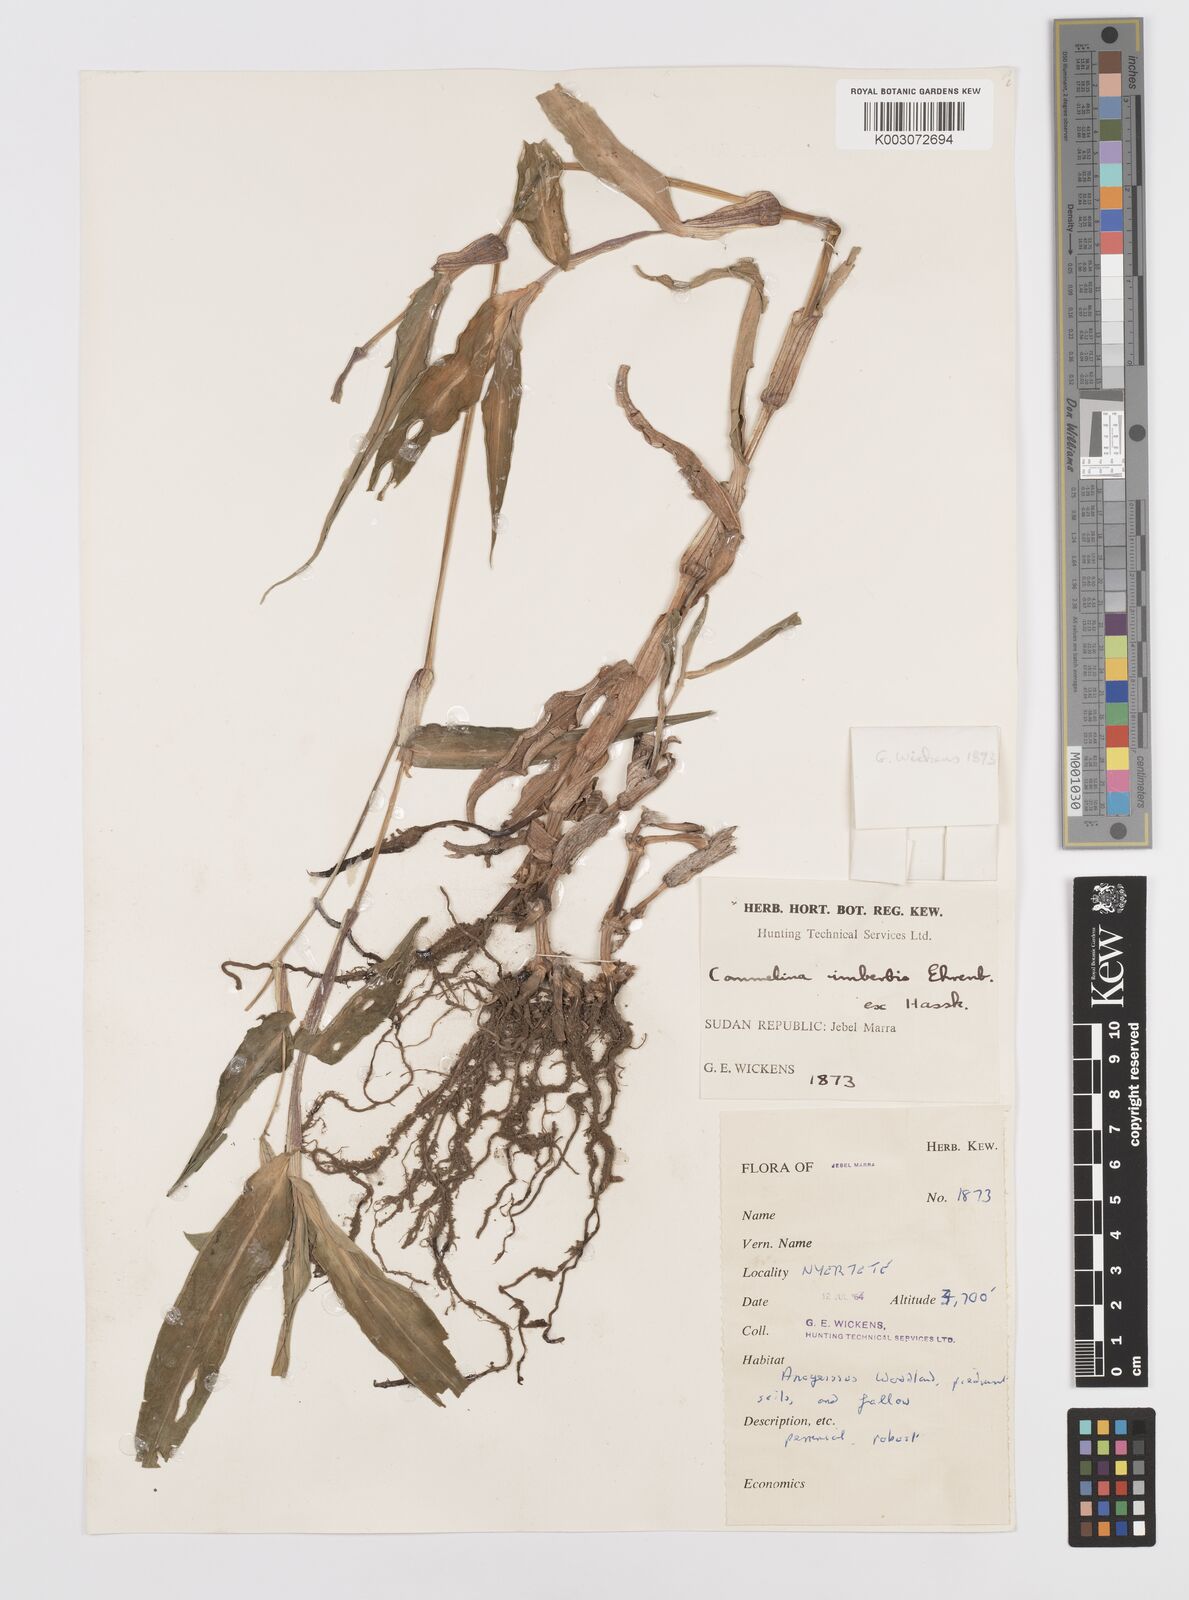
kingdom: Plantae
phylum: Tracheophyta
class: Liliopsida
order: Commelinales
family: Commelinaceae
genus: Commelina
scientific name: Commelina imberbis
